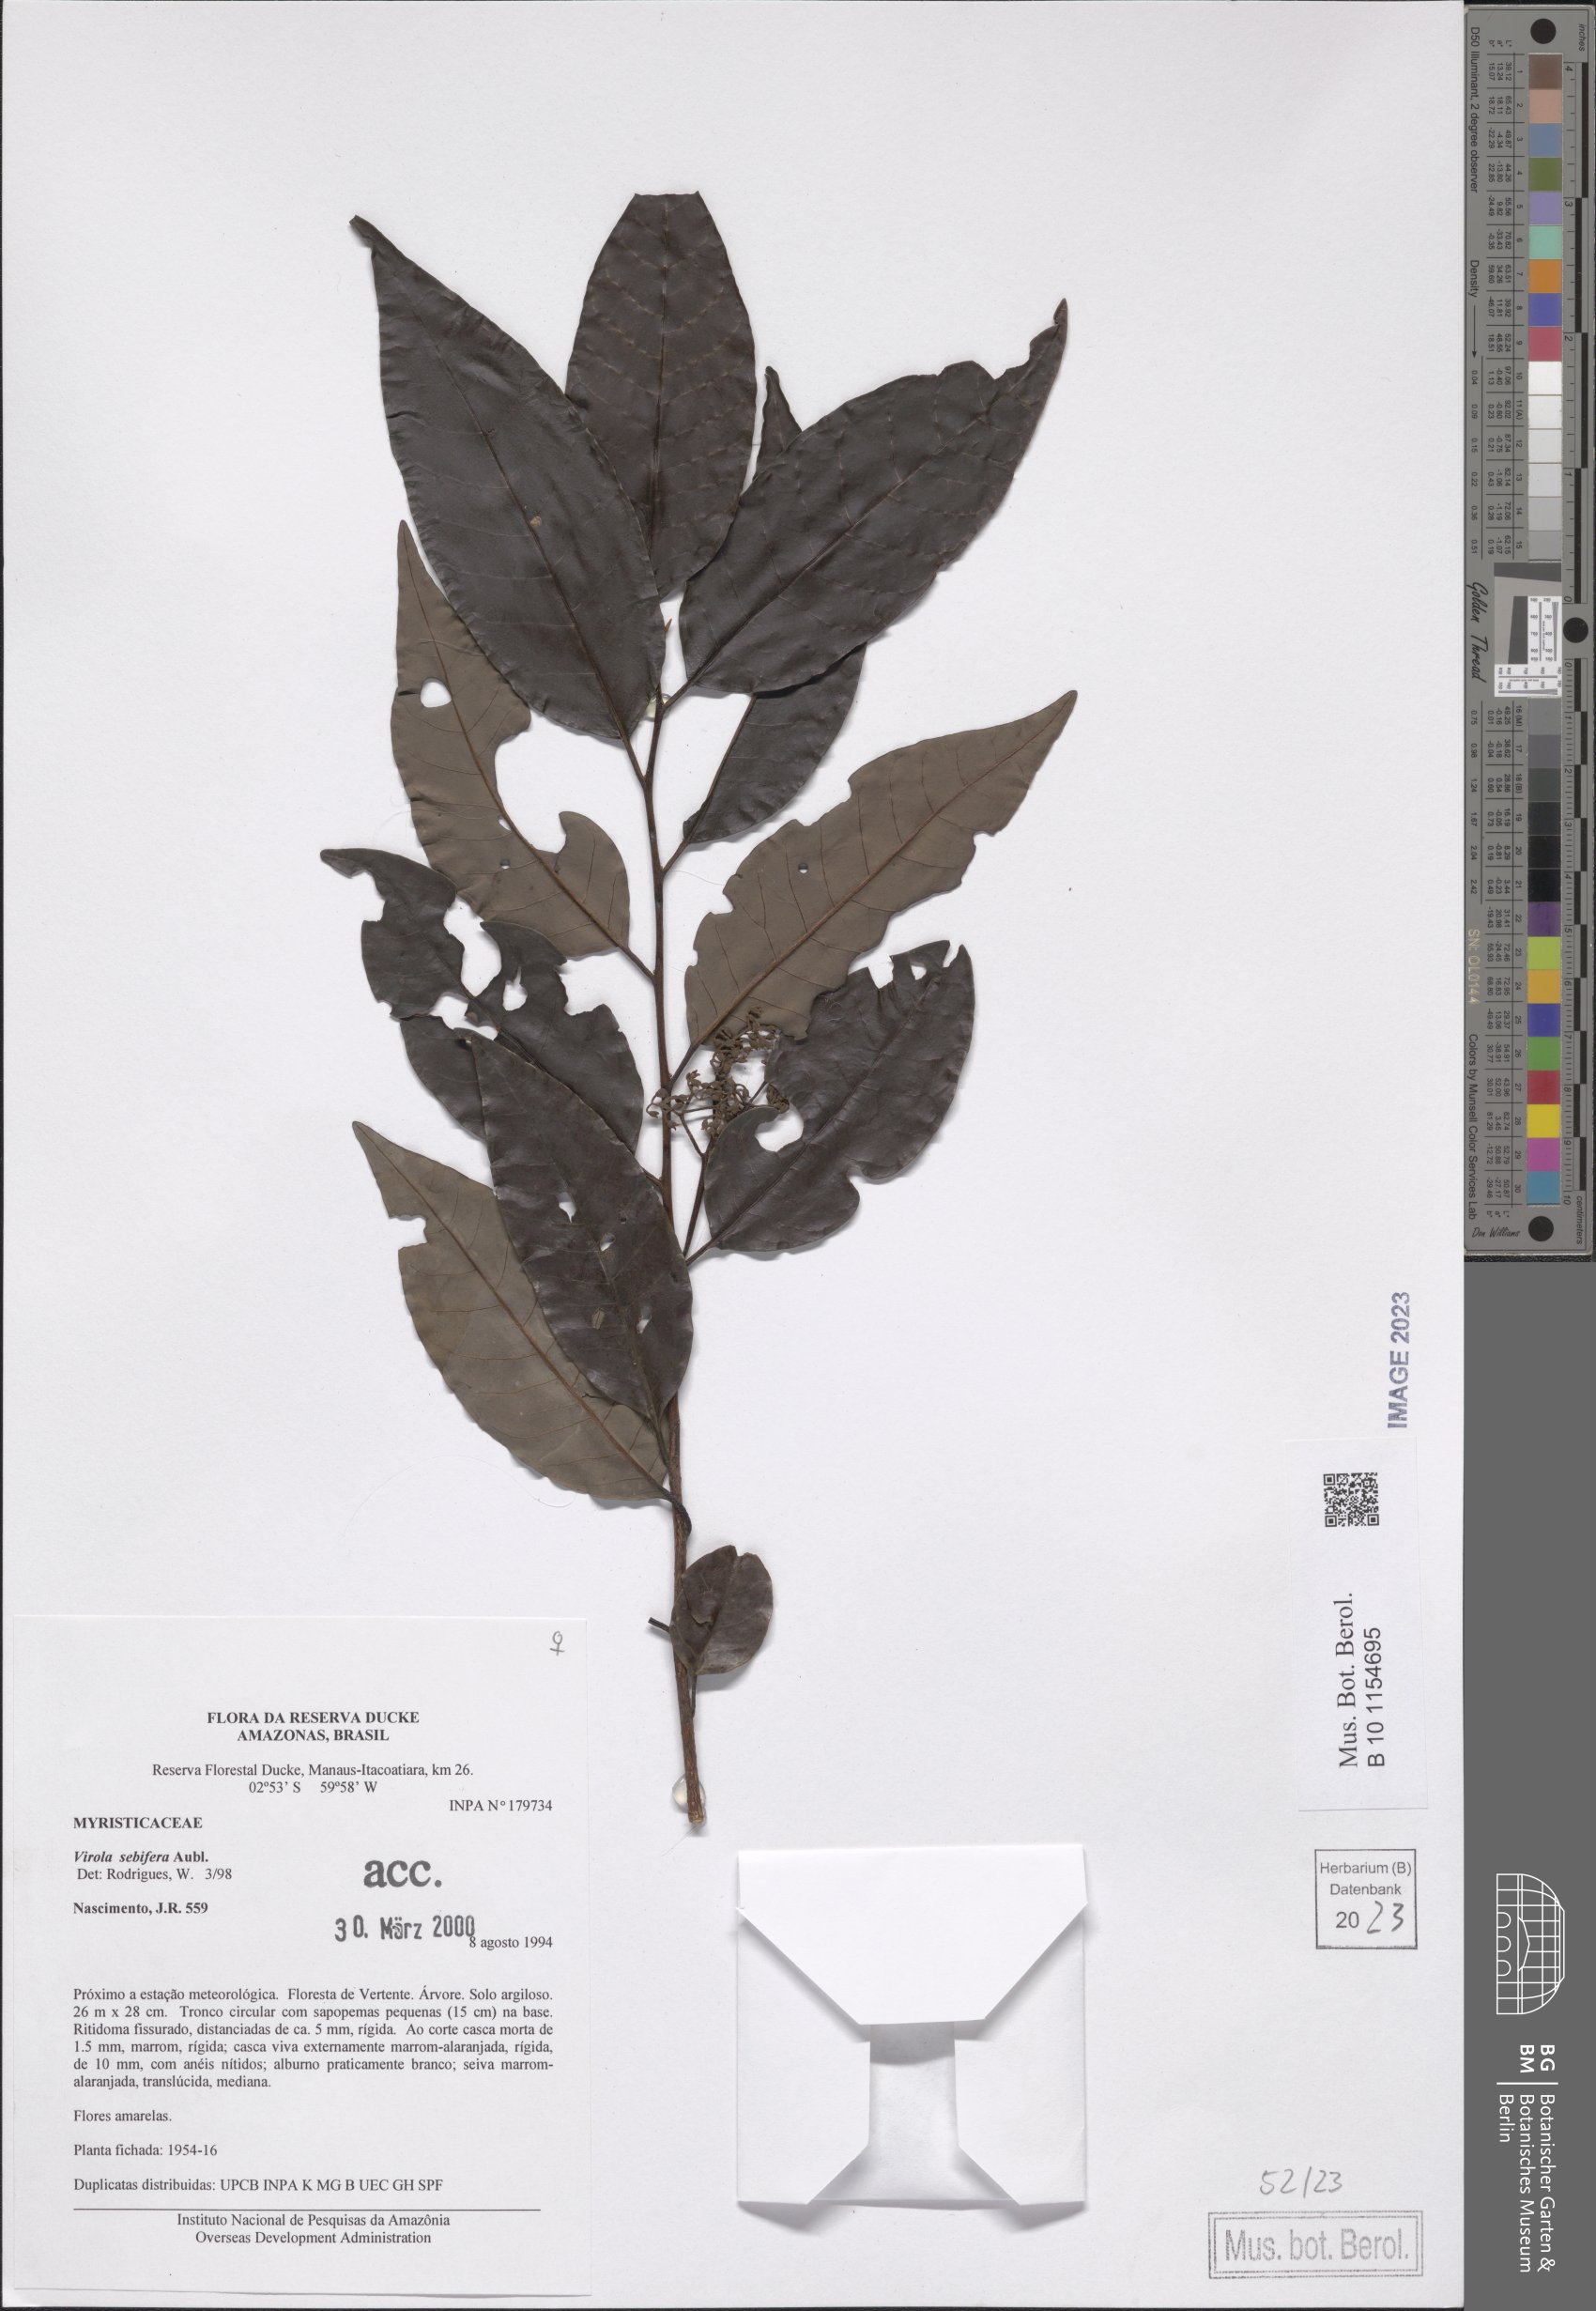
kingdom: Plantae
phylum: Tracheophyta
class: Magnoliopsida
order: Magnoliales
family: Myristicaceae
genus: Virola
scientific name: Virola sebifera
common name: Red ucuuba
